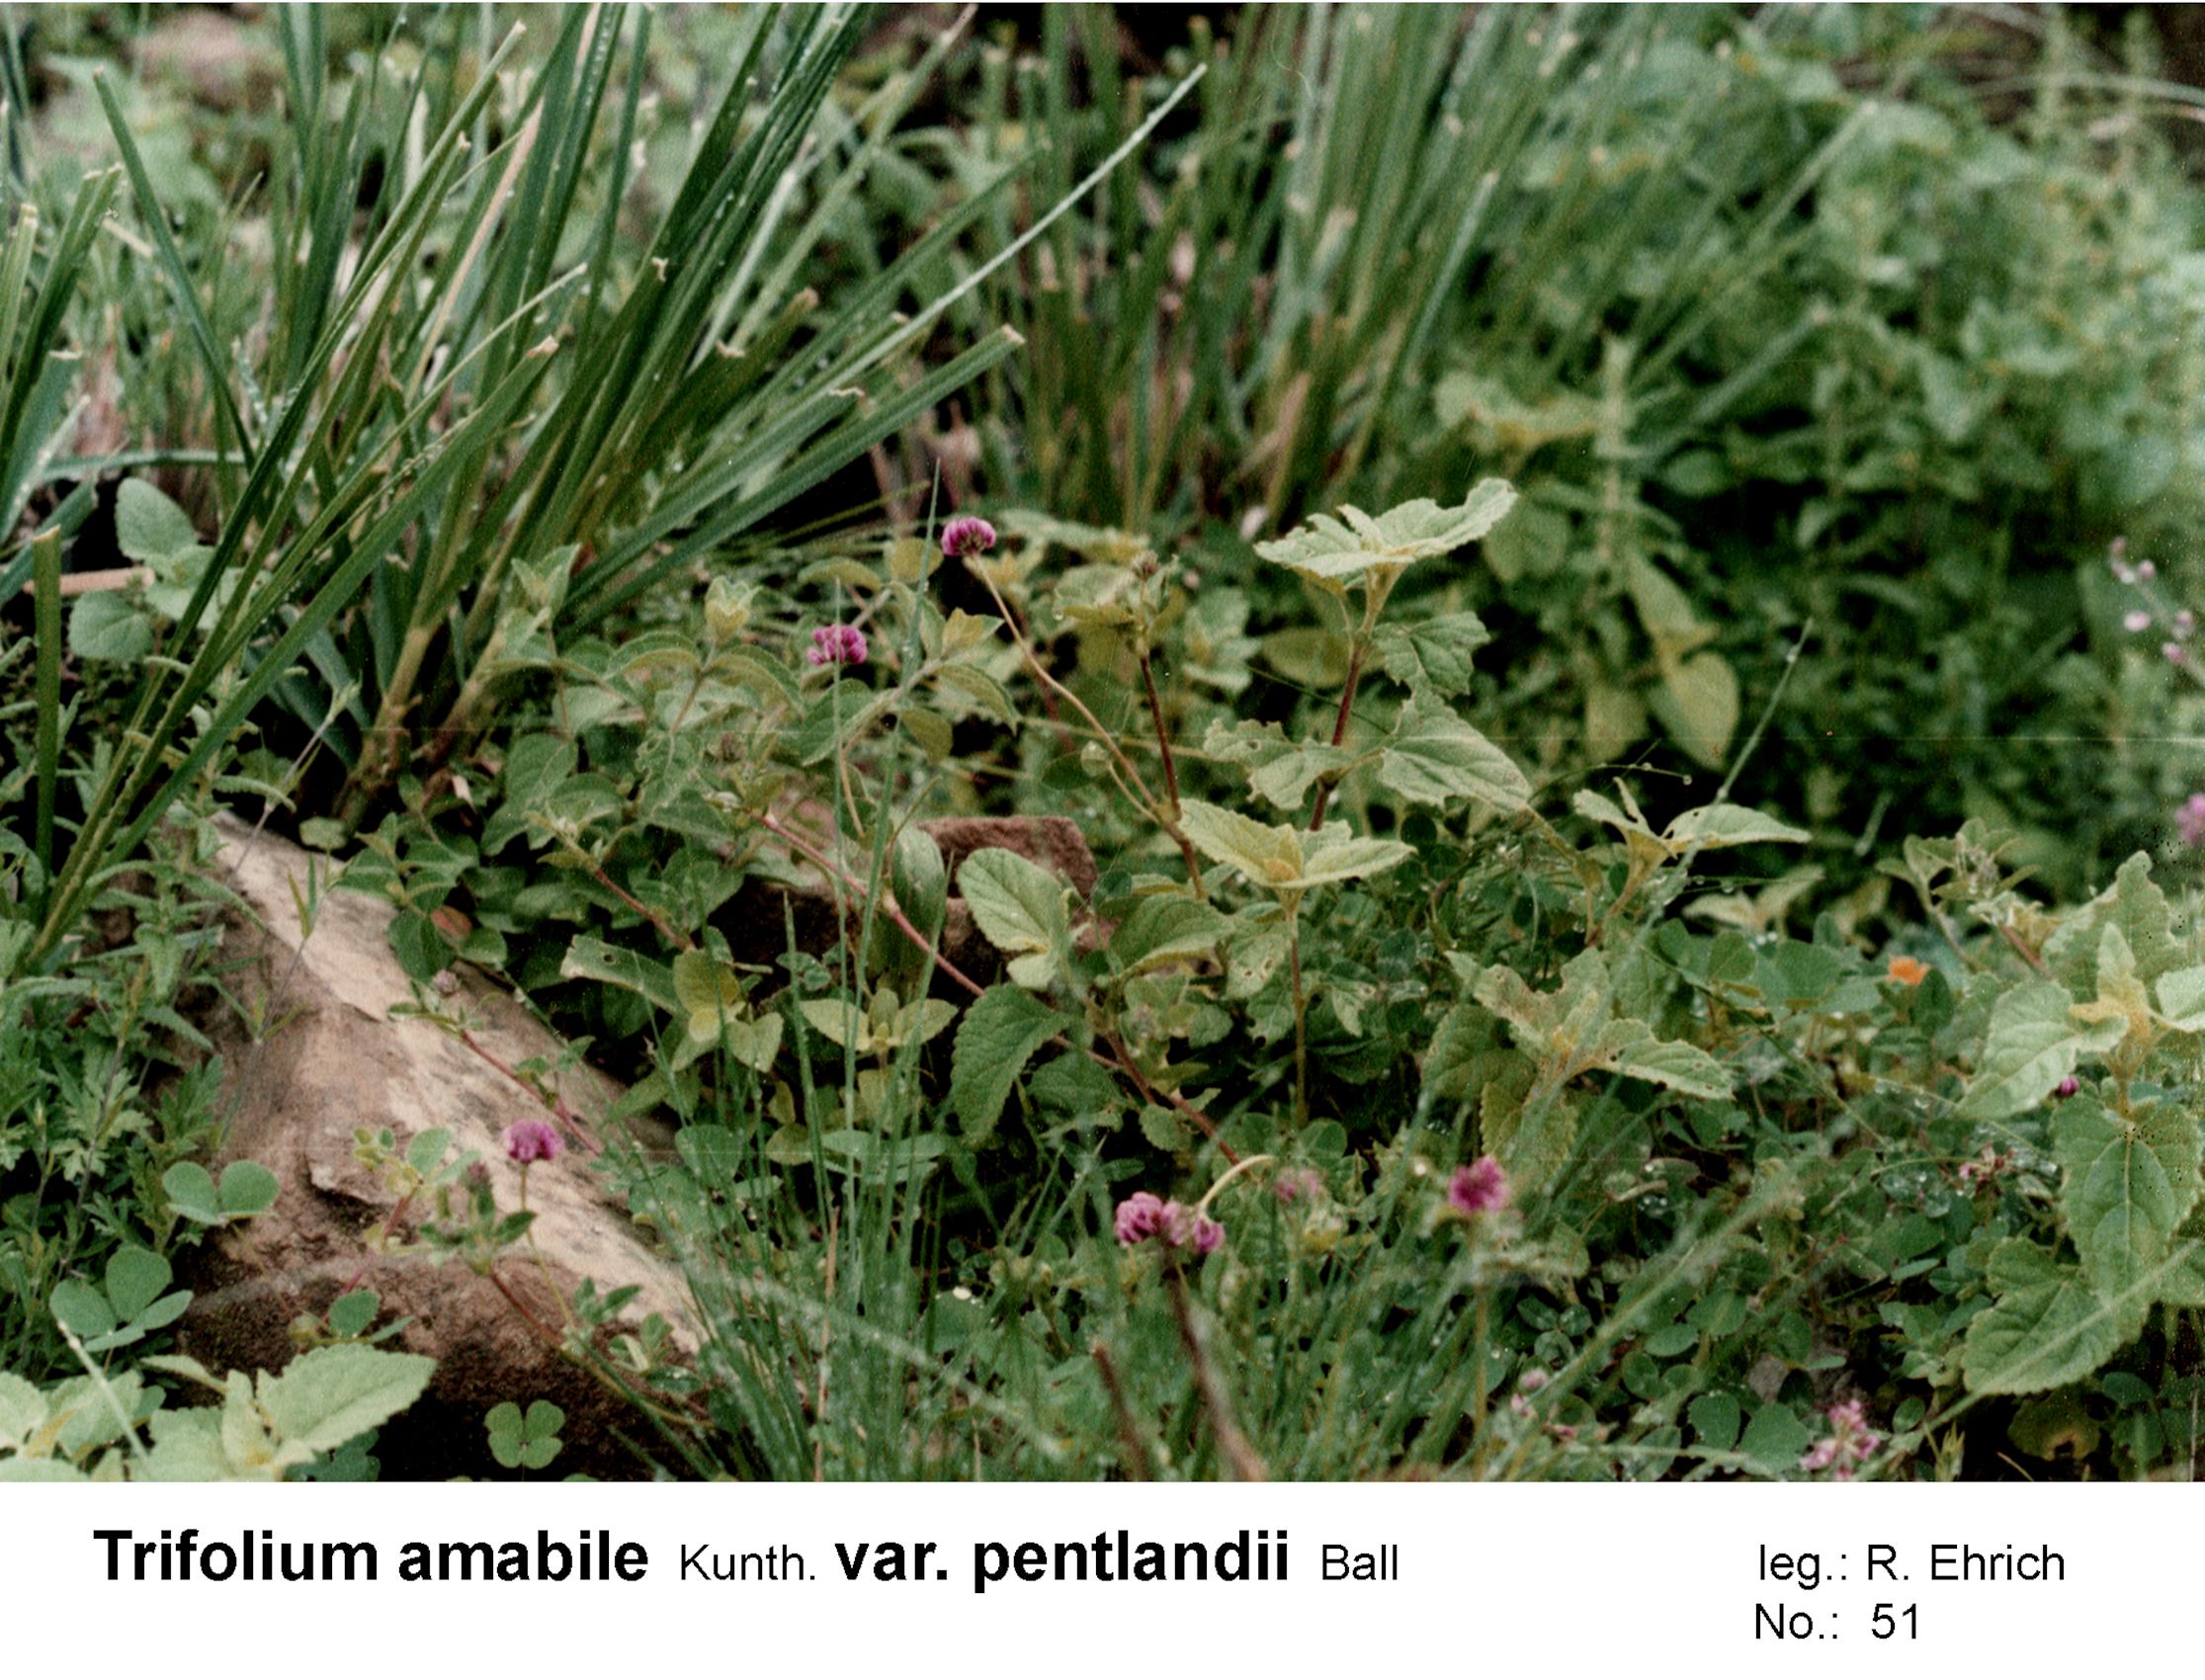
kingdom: Plantae
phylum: Tracheophyta
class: Magnoliopsida
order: Fabales
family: Fabaceae
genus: Trifolium
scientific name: Trifolium peruvianum
